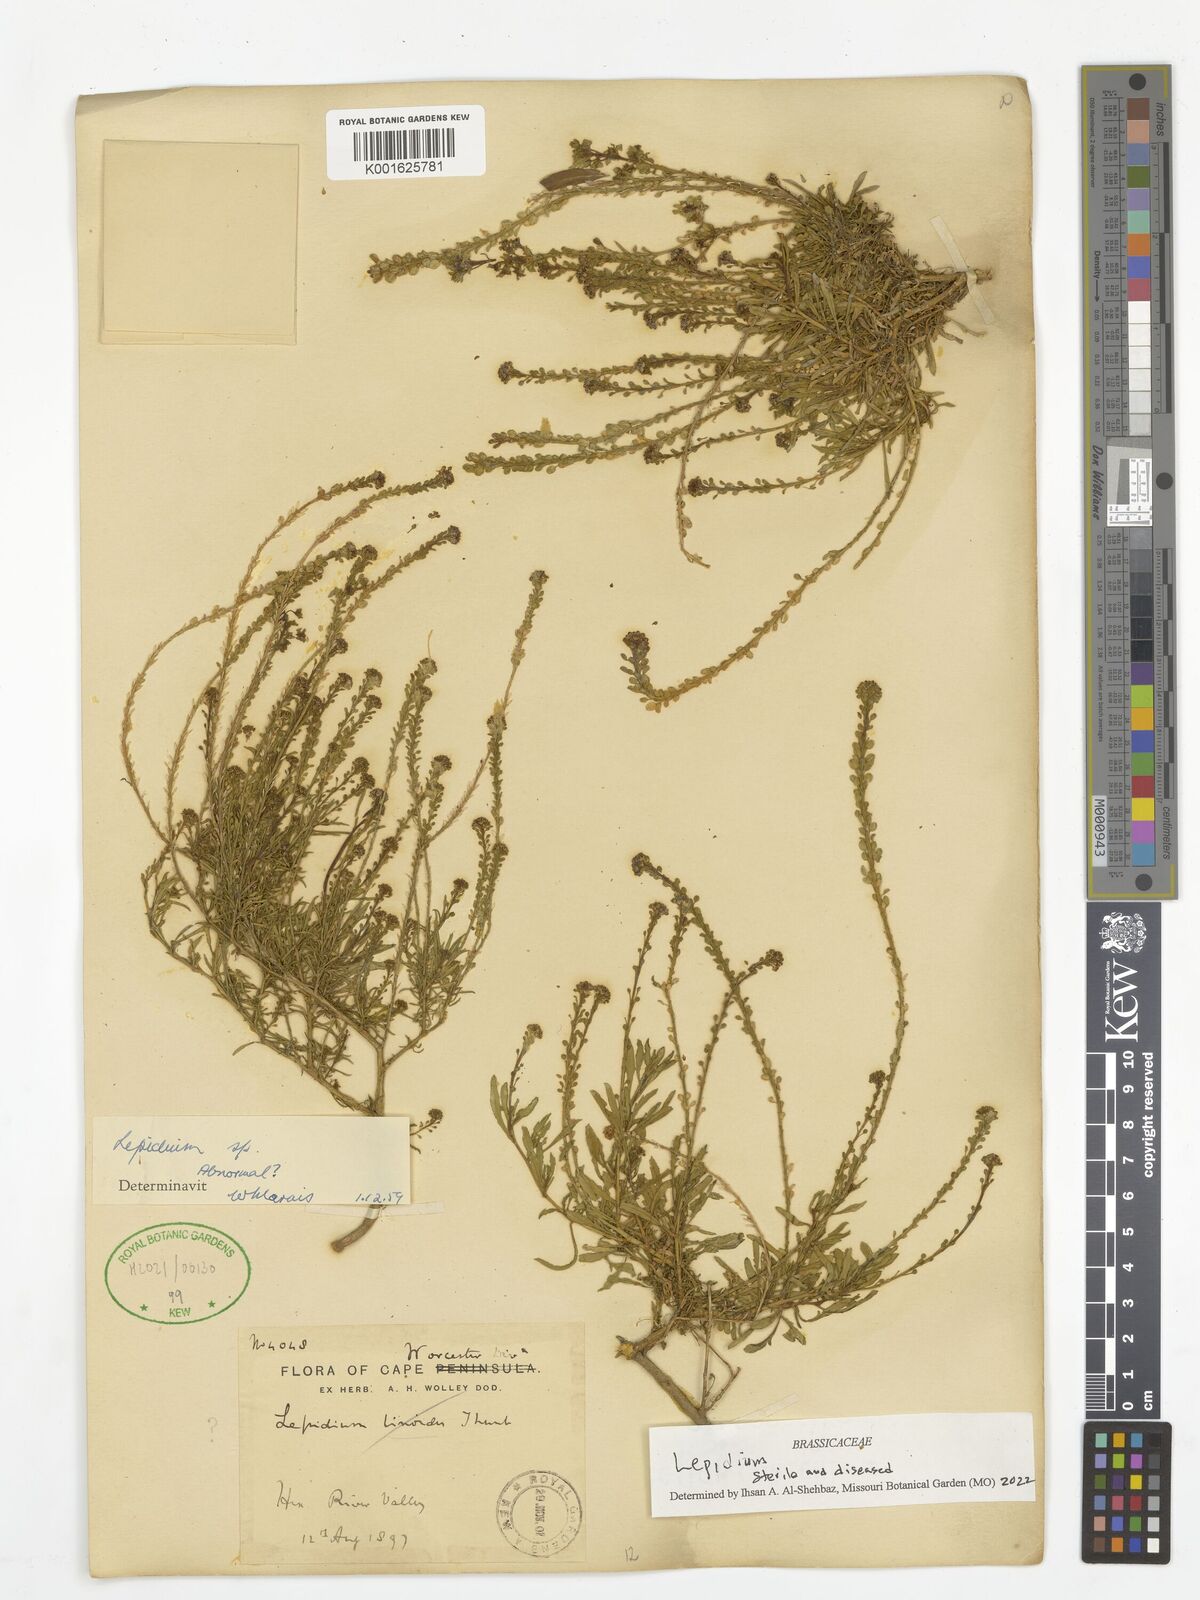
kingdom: Plantae
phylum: Tracheophyta
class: Magnoliopsida
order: Brassicales
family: Brassicaceae
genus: Lepidium
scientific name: Lepidium
